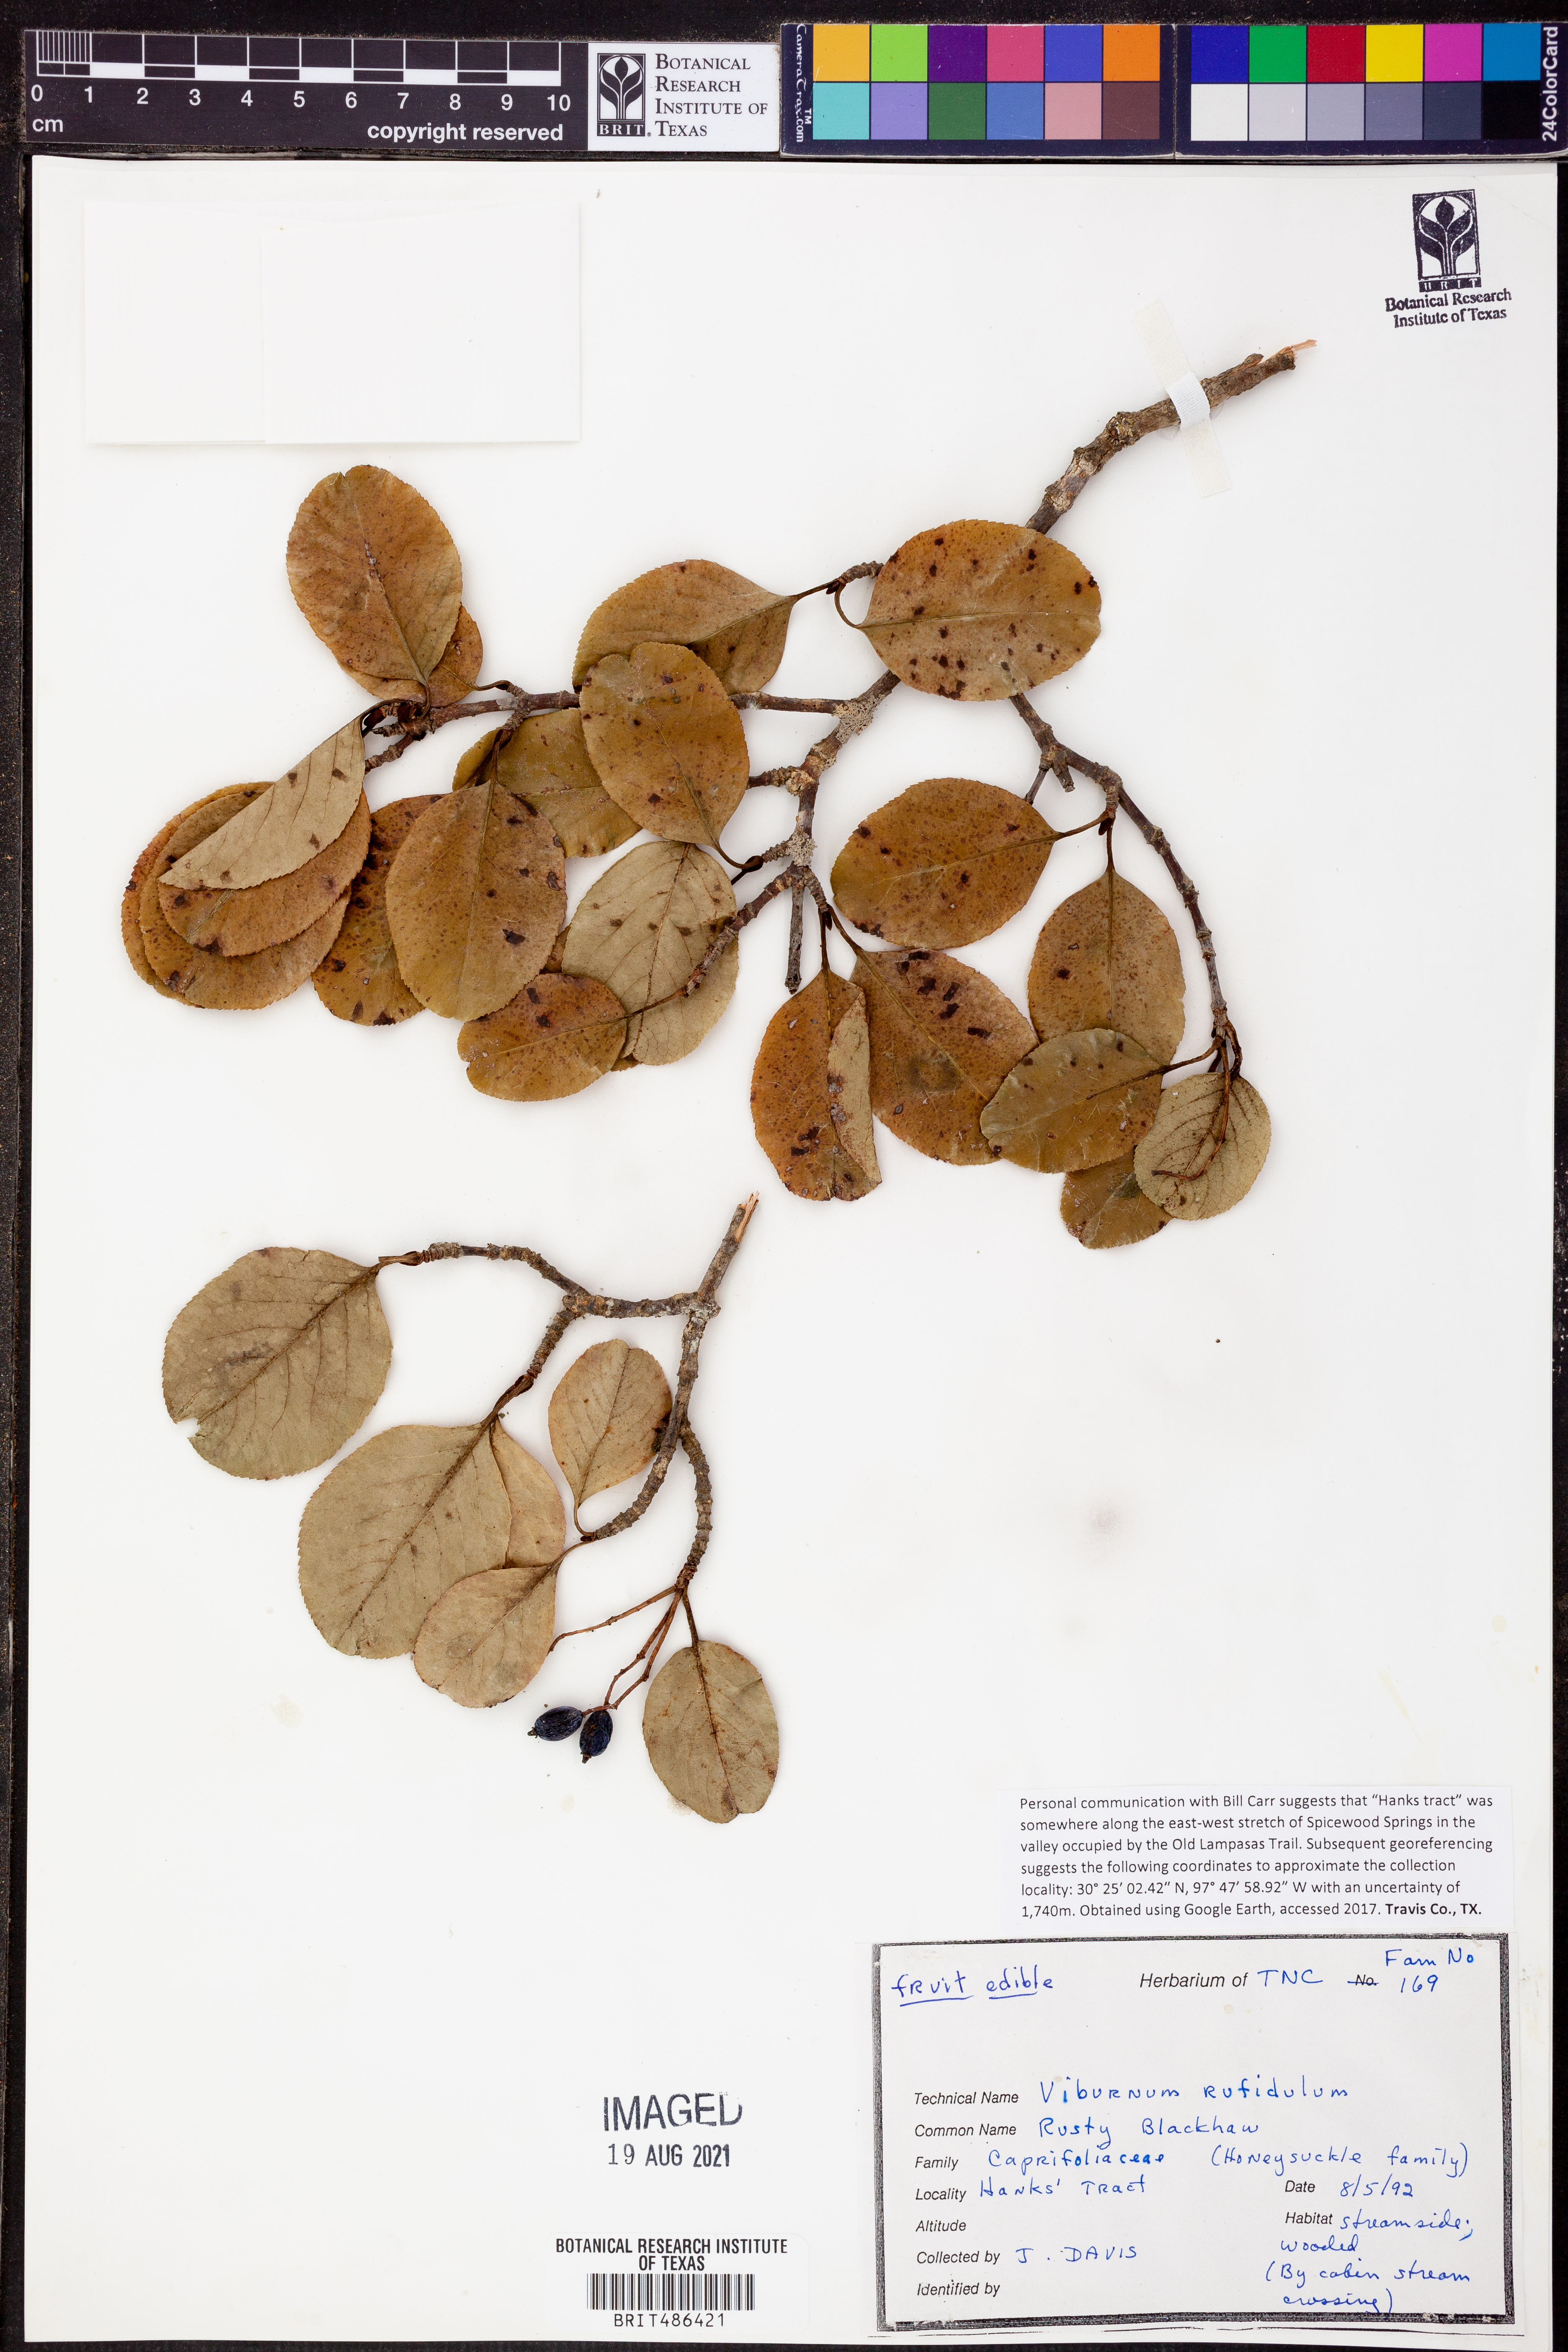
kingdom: Plantae
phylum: Tracheophyta
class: Magnoliopsida
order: Dipsacales
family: Viburnaceae
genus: Viburnum
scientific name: Viburnum rufidulum
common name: Blue haw
